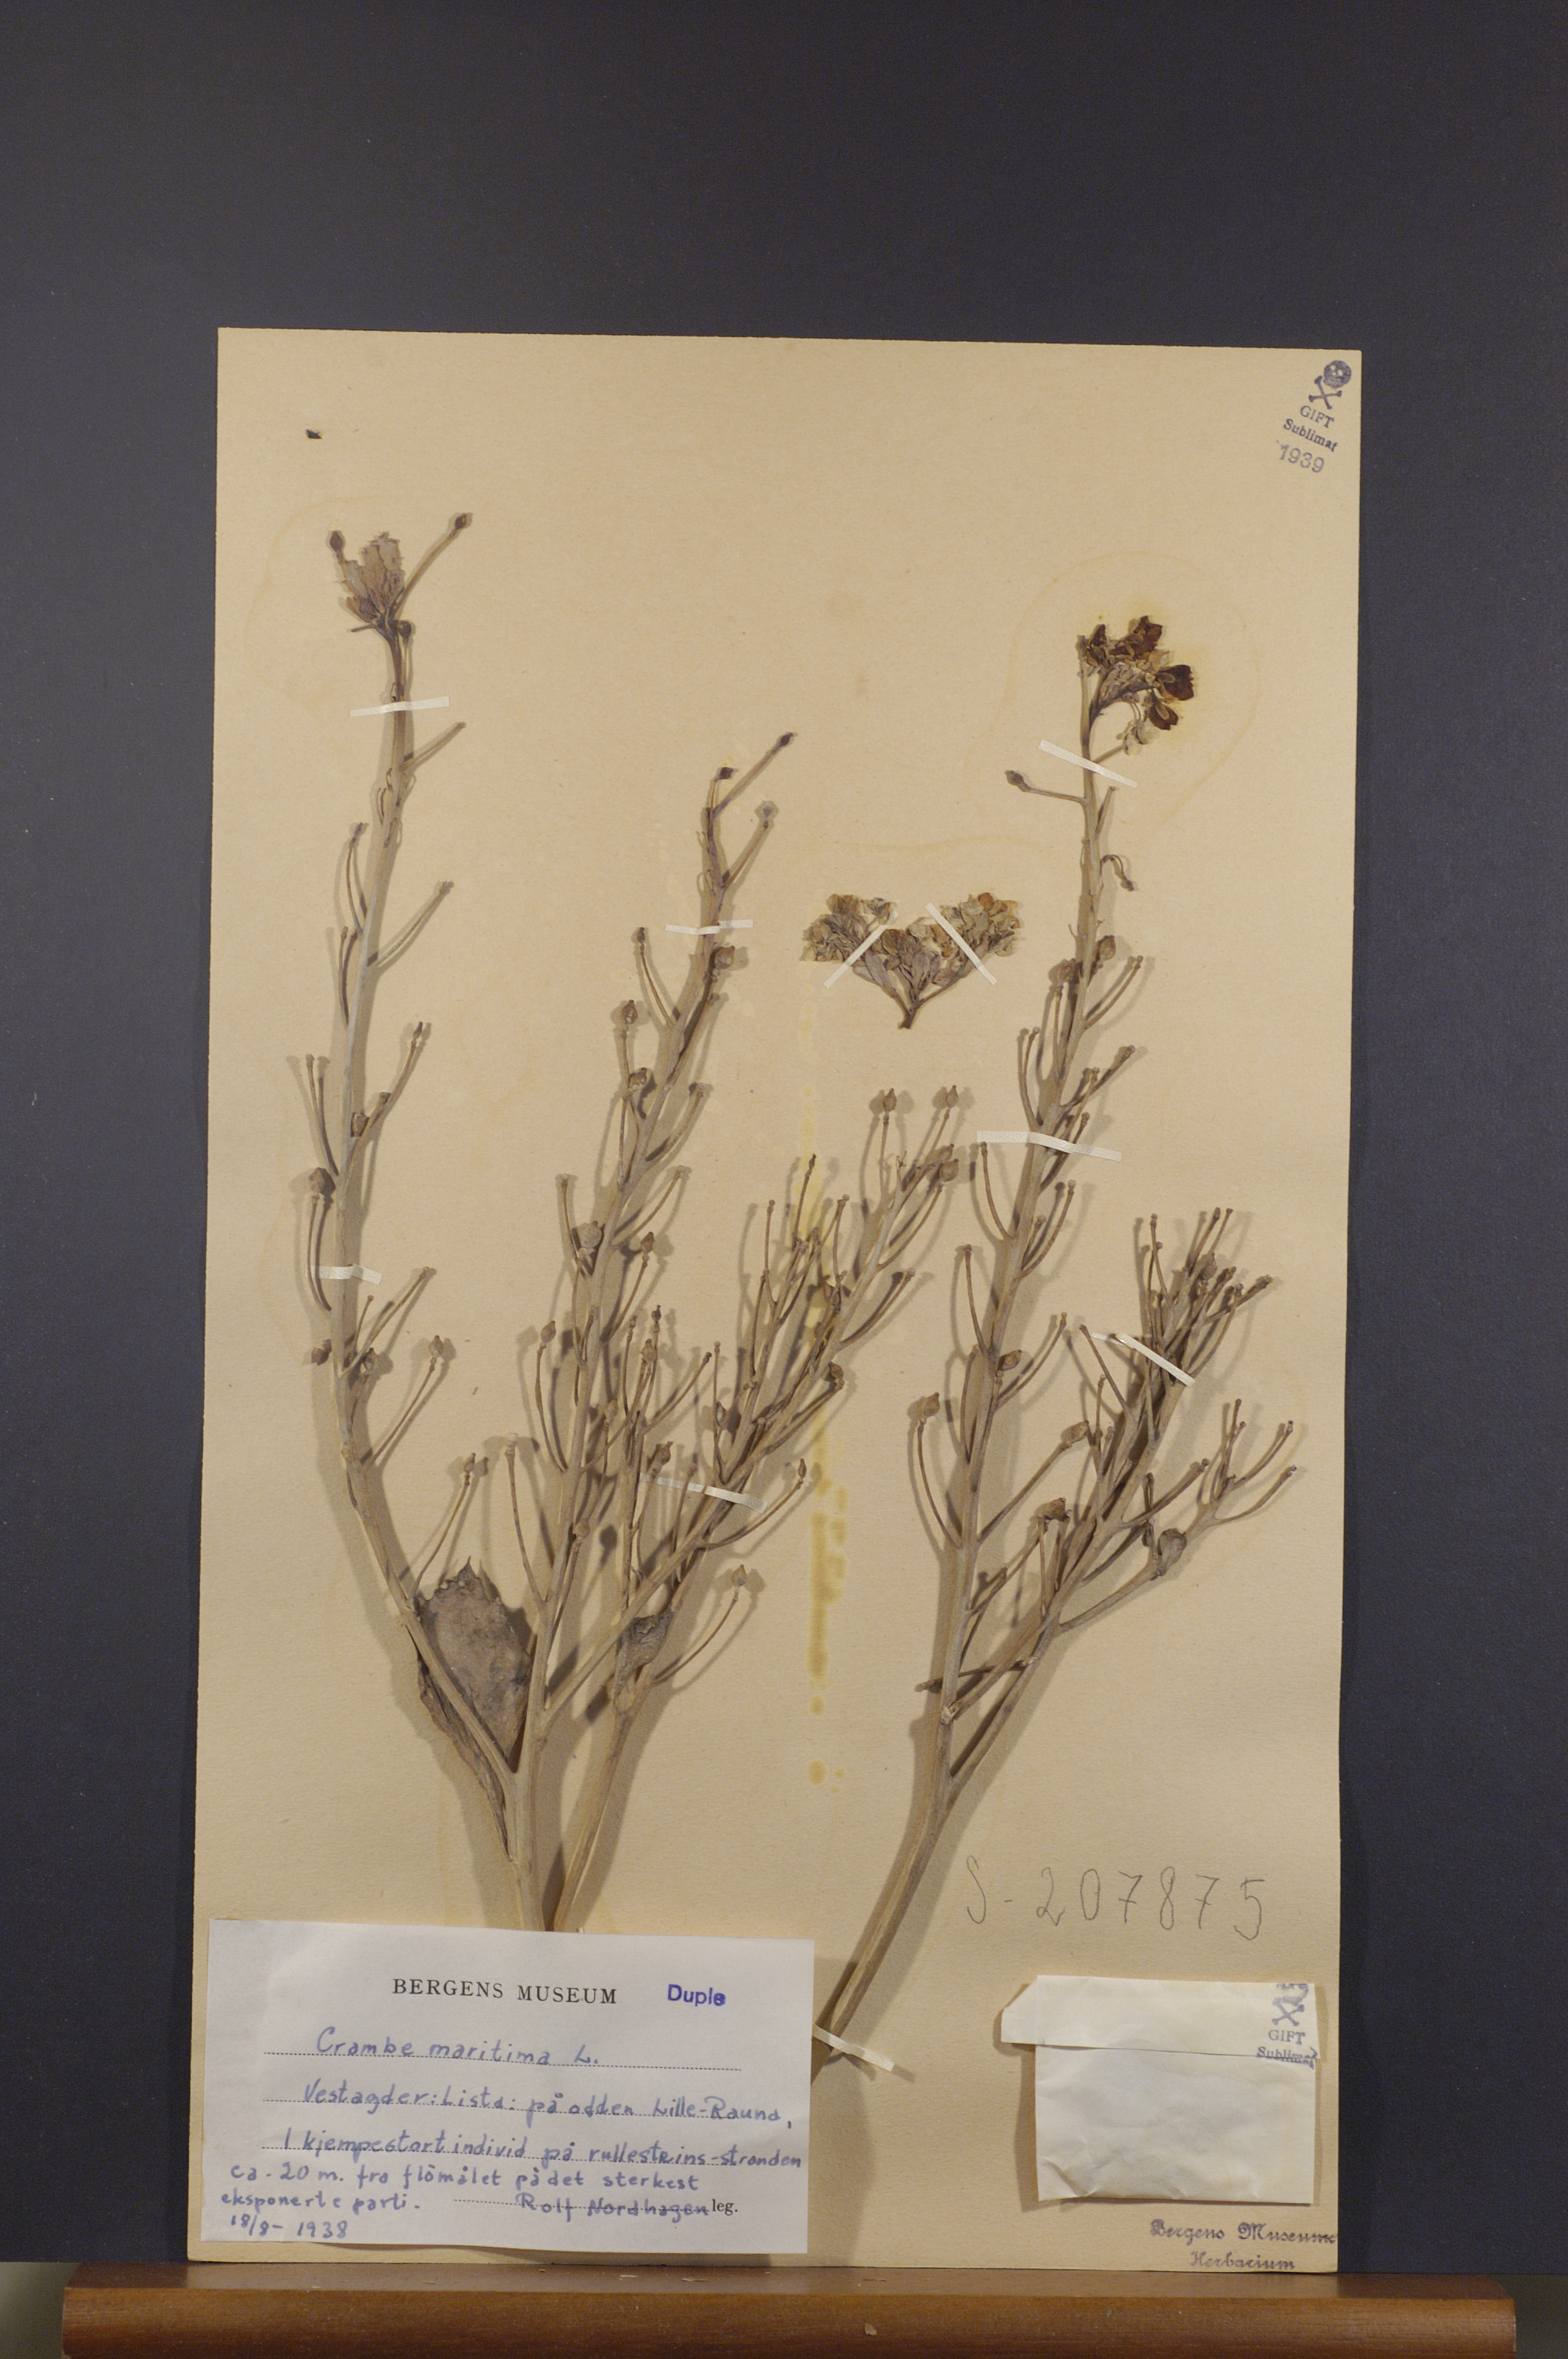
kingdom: Plantae
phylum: Tracheophyta
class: Magnoliopsida
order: Brassicales
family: Brassicaceae
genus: Crambe
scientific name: Crambe maritima
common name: Sea-kale
